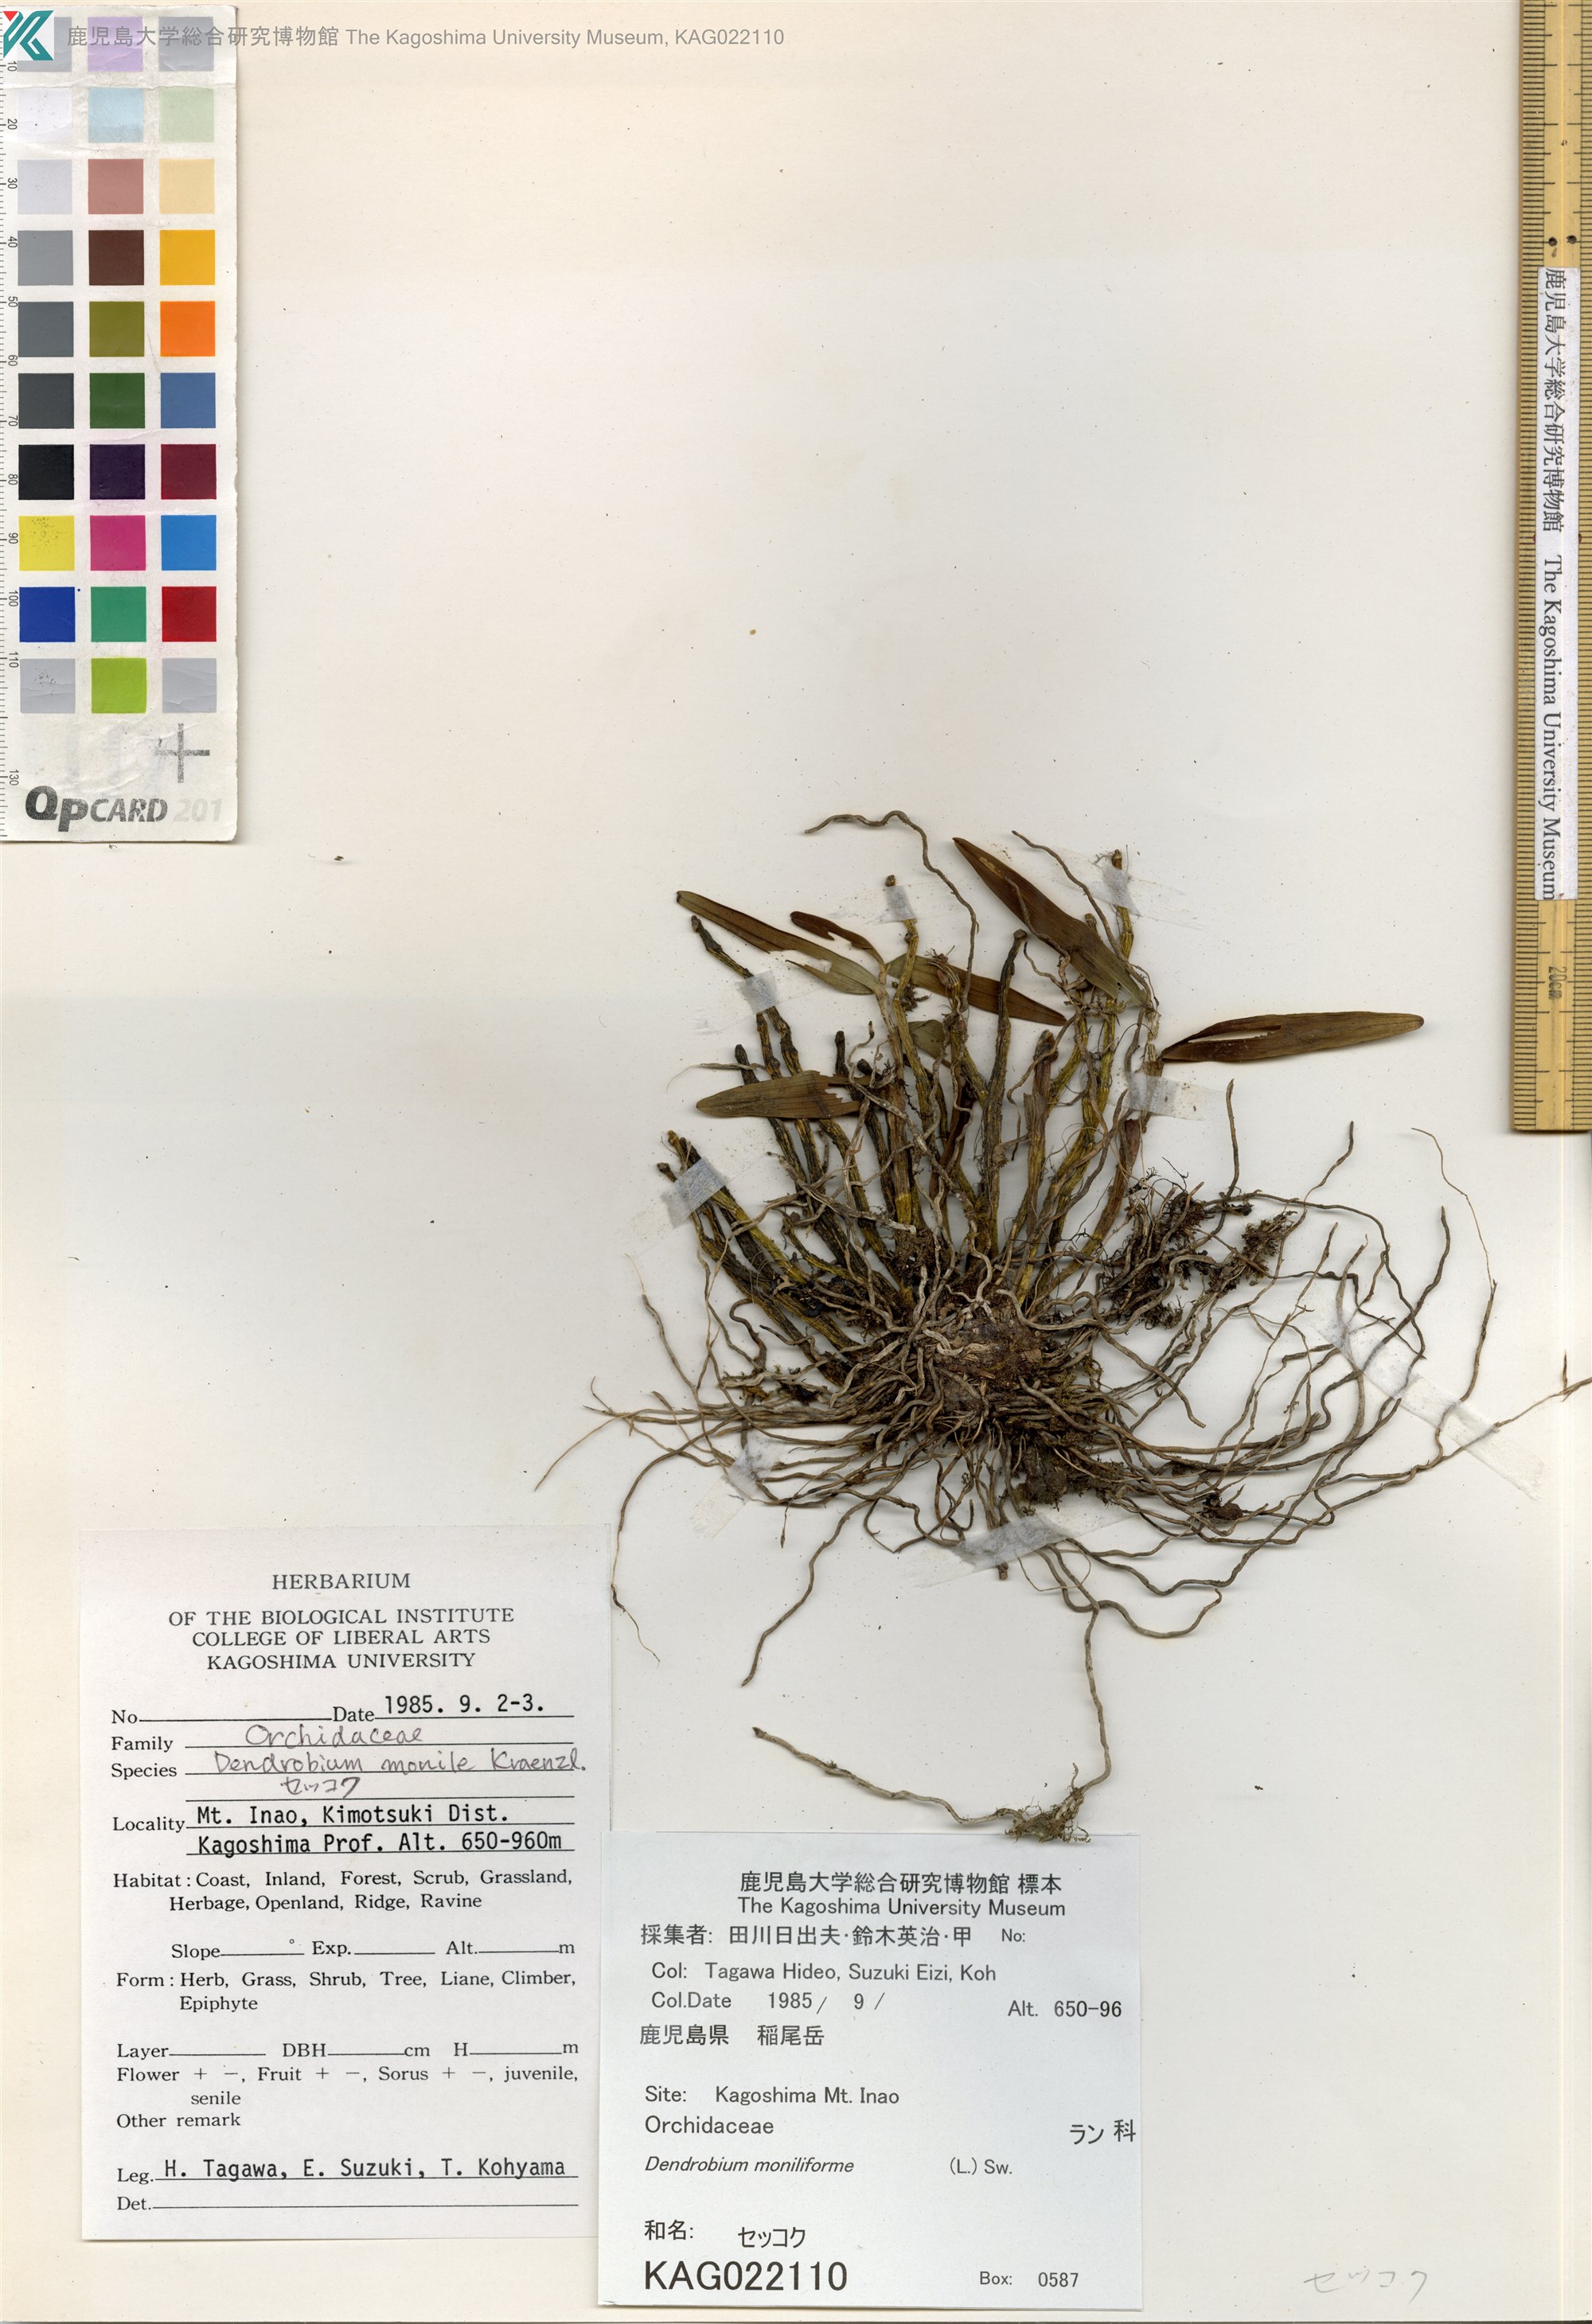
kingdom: Plantae
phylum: Tracheophyta
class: Liliopsida
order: Asparagales
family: Orchidaceae
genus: Dendrobium
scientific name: Dendrobium moniliforme
